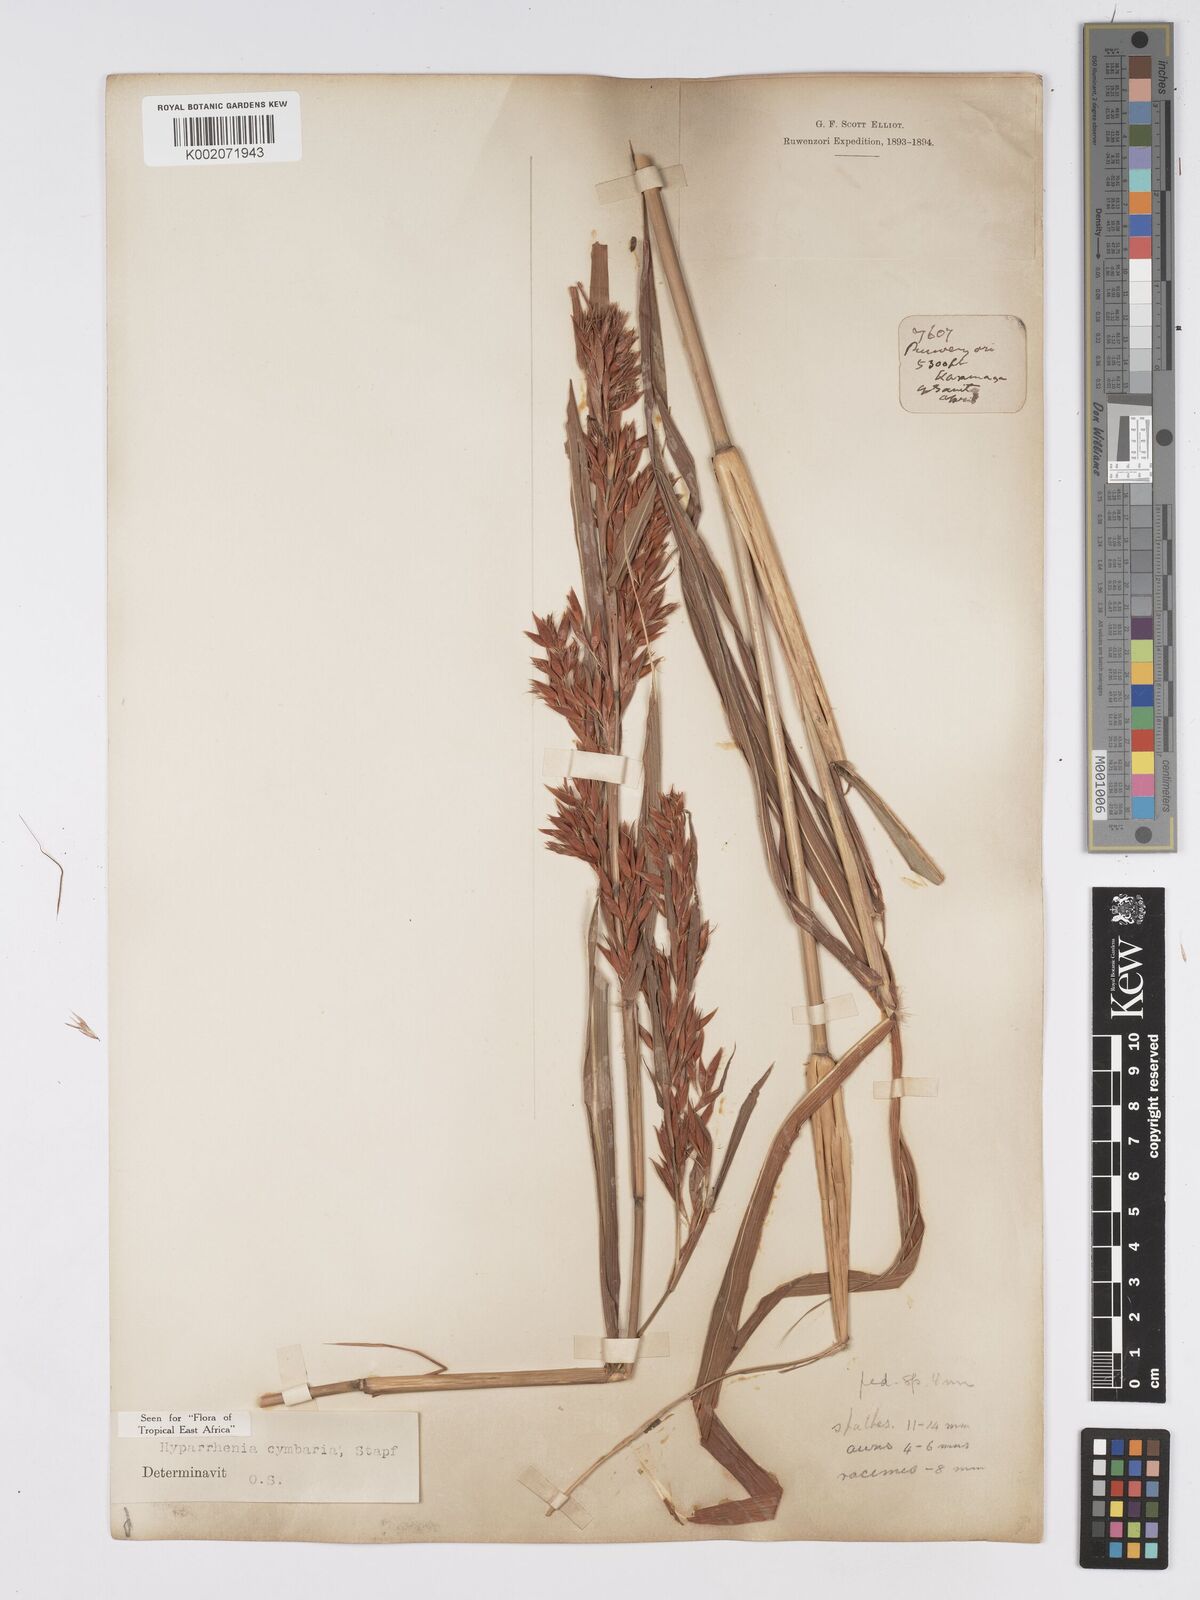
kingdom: Plantae
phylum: Tracheophyta
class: Liliopsida
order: Poales
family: Poaceae
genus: Hyparrhenia
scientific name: Hyparrhenia cymbaria
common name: Boat thatching grass
